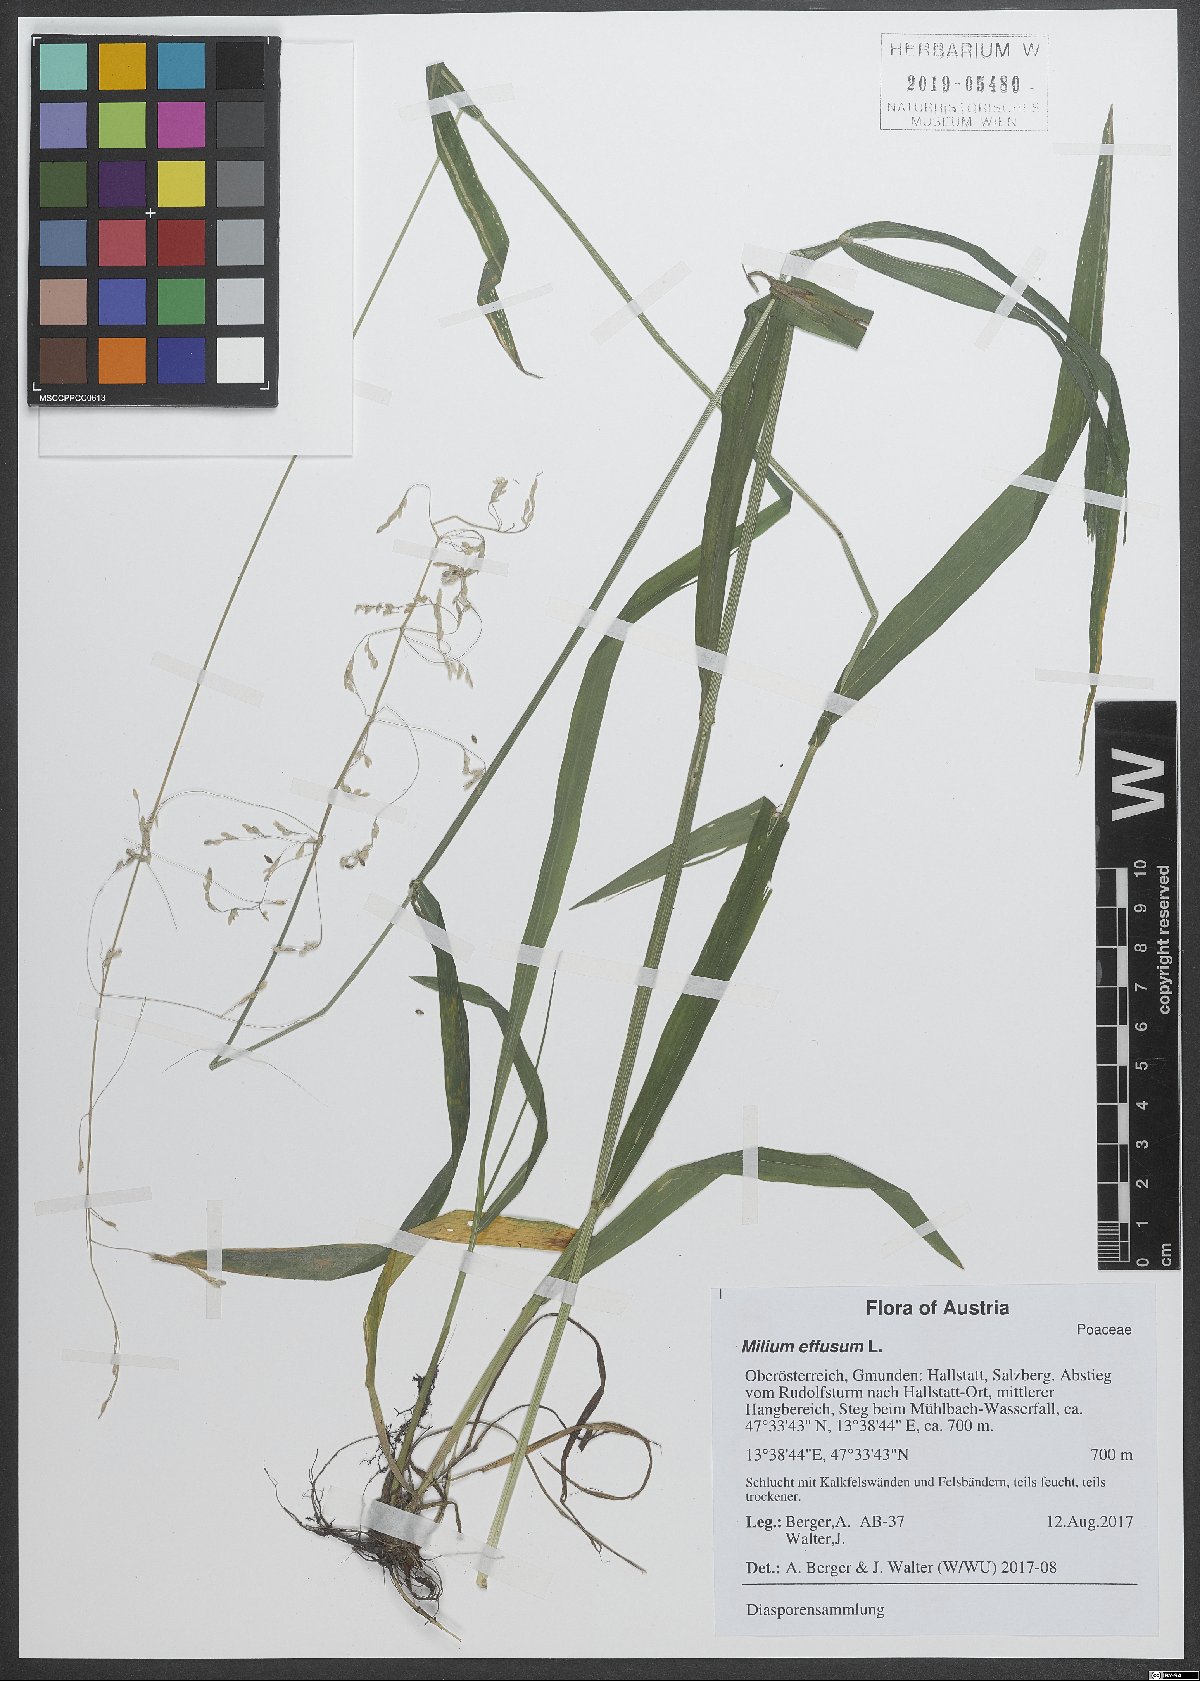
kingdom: Plantae
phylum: Tracheophyta
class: Liliopsida
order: Poales
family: Poaceae
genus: Milium
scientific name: Milium effusum
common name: Wood millet
